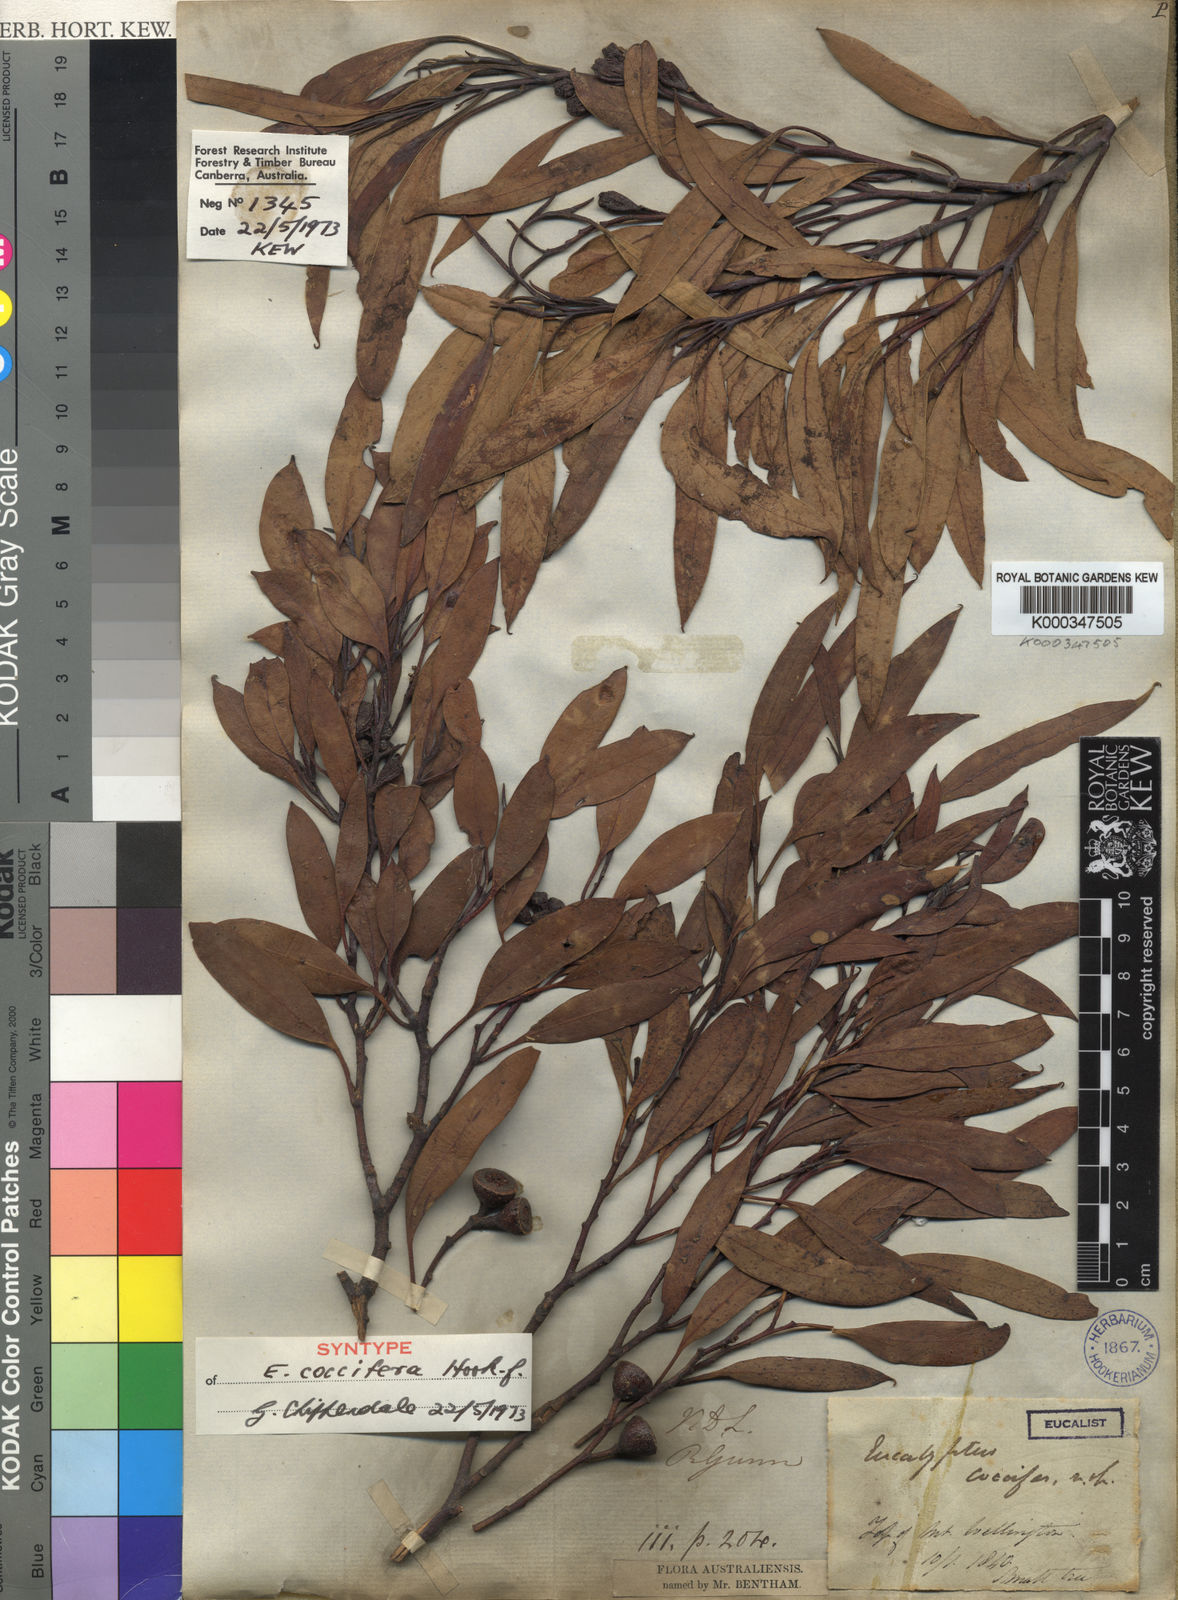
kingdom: Plantae
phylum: Tracheophyta
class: Magnoliopsida
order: Myrtales
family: Myrtaceae
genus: Eucalyptus
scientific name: Eucalyptus coccifera
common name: Tasmanian snow-gum
